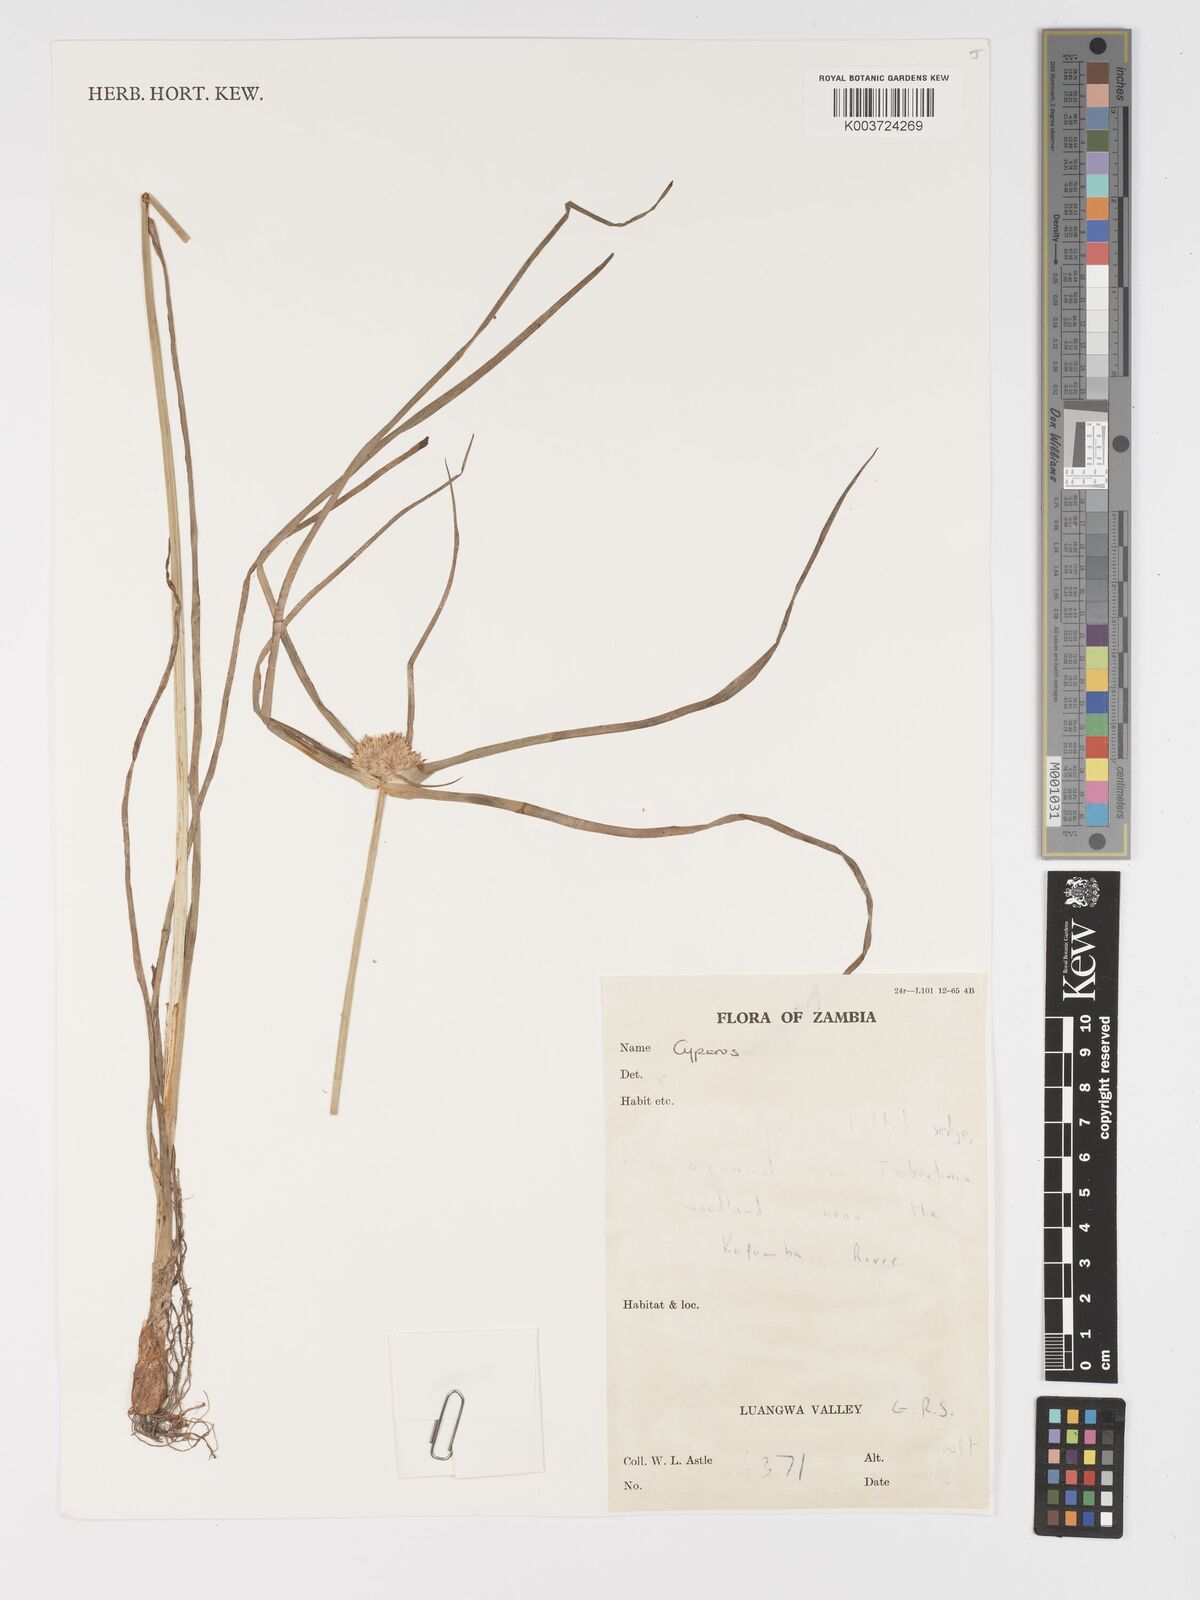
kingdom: Plantae
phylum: Tracheophyta
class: Liliopsida
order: Poales
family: Cyperaceae
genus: Cyperus
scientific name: Cyperus
